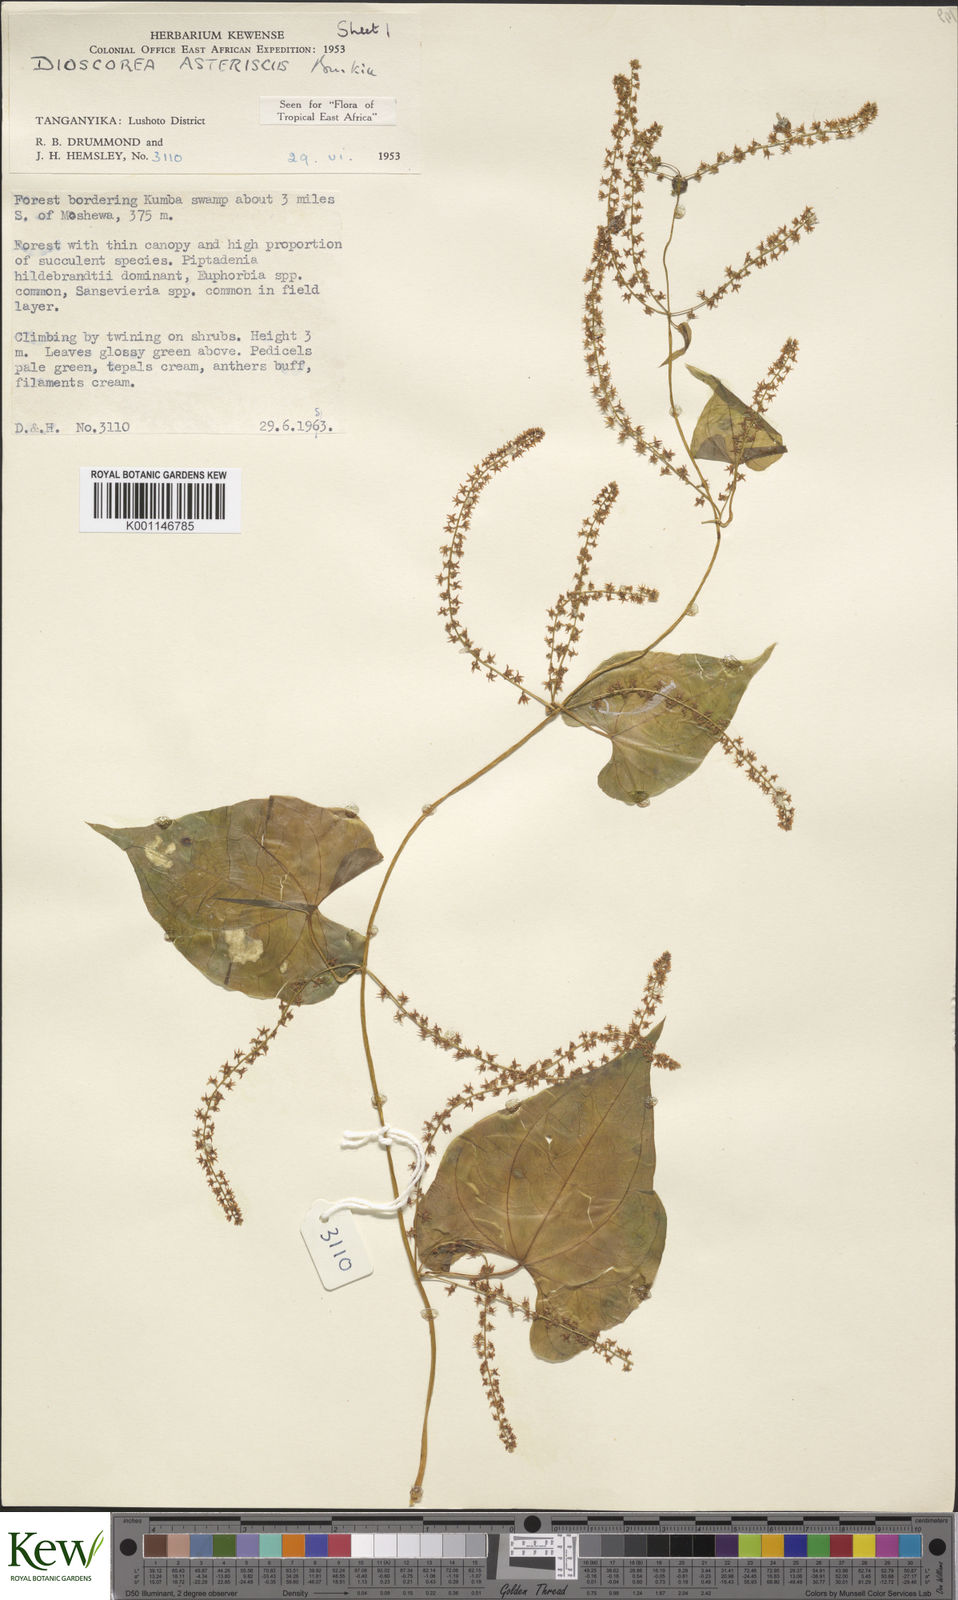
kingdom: Plantae
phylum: Tracheophyta
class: Liliopsida
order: Dioscoreales
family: Dioscoreaceae
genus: Dioscorea
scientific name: Dioscorea asteriscus
